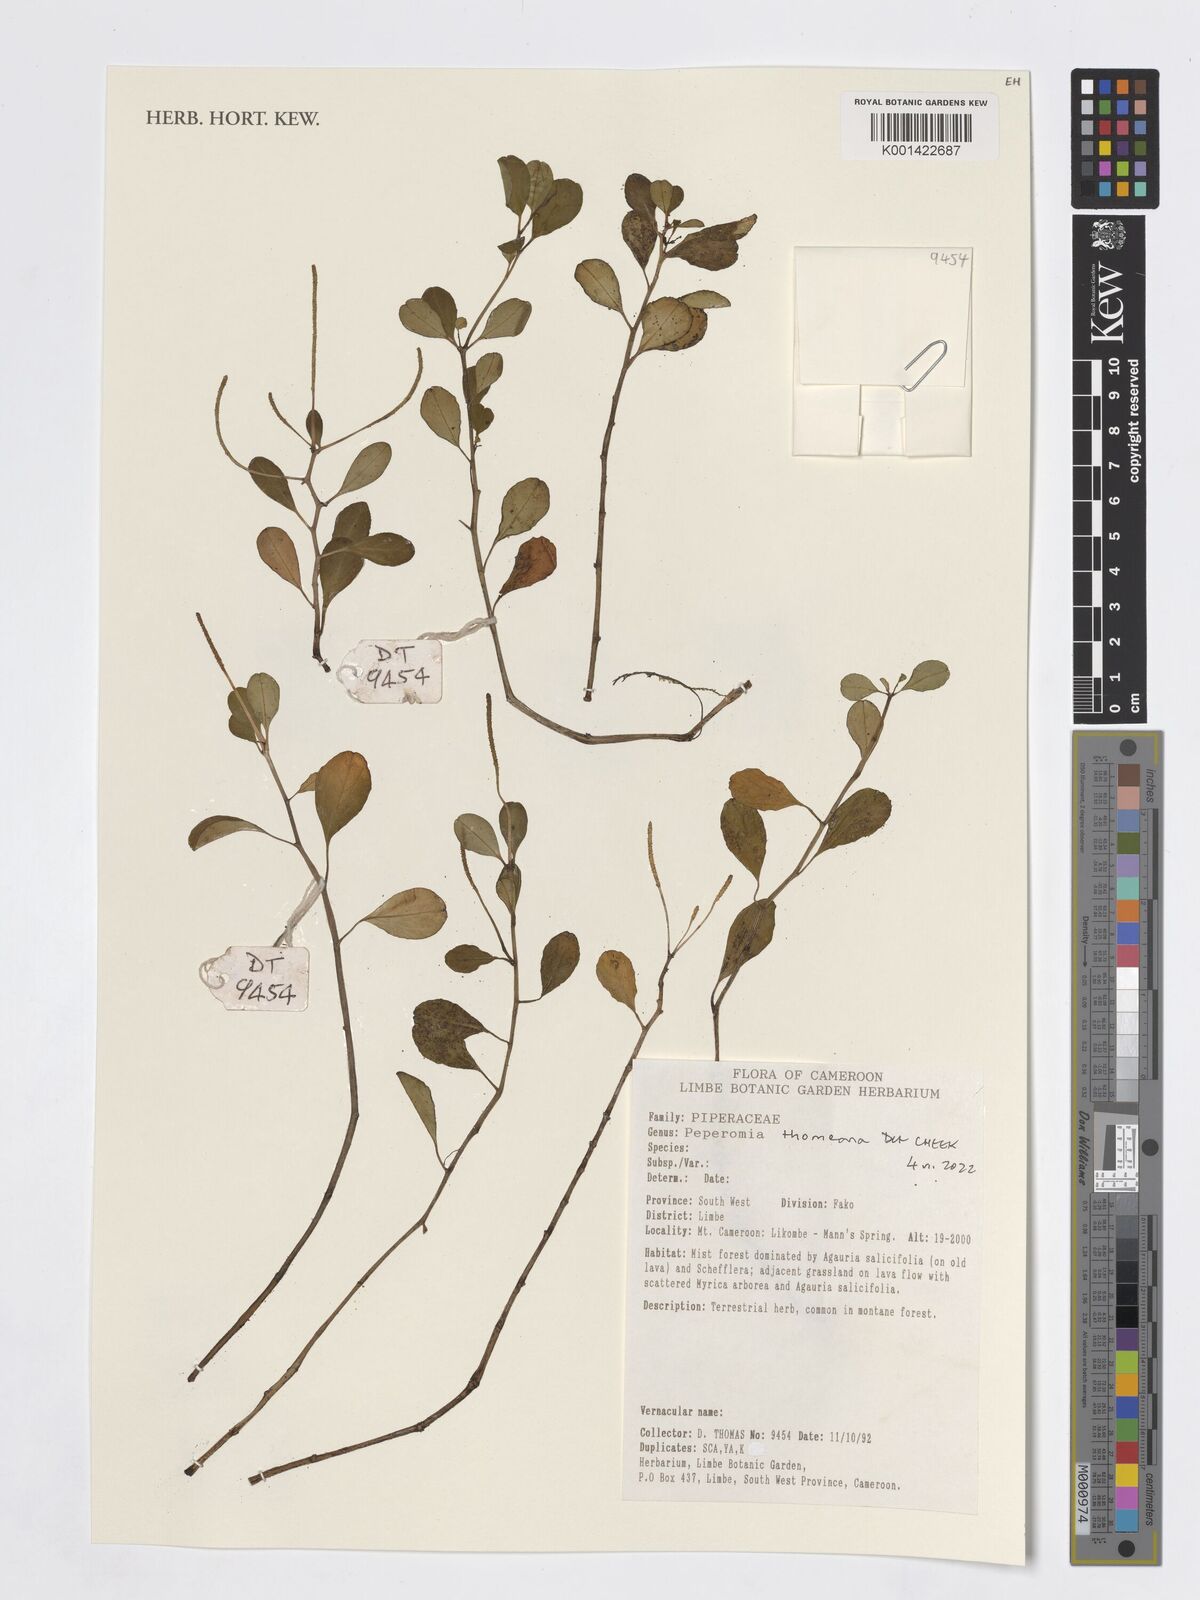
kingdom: Plantae
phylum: Tracheophyta
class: Magnoliopsida
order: Piperales
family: Piperaceae
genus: Peperomia
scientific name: Peperomia thomeana
